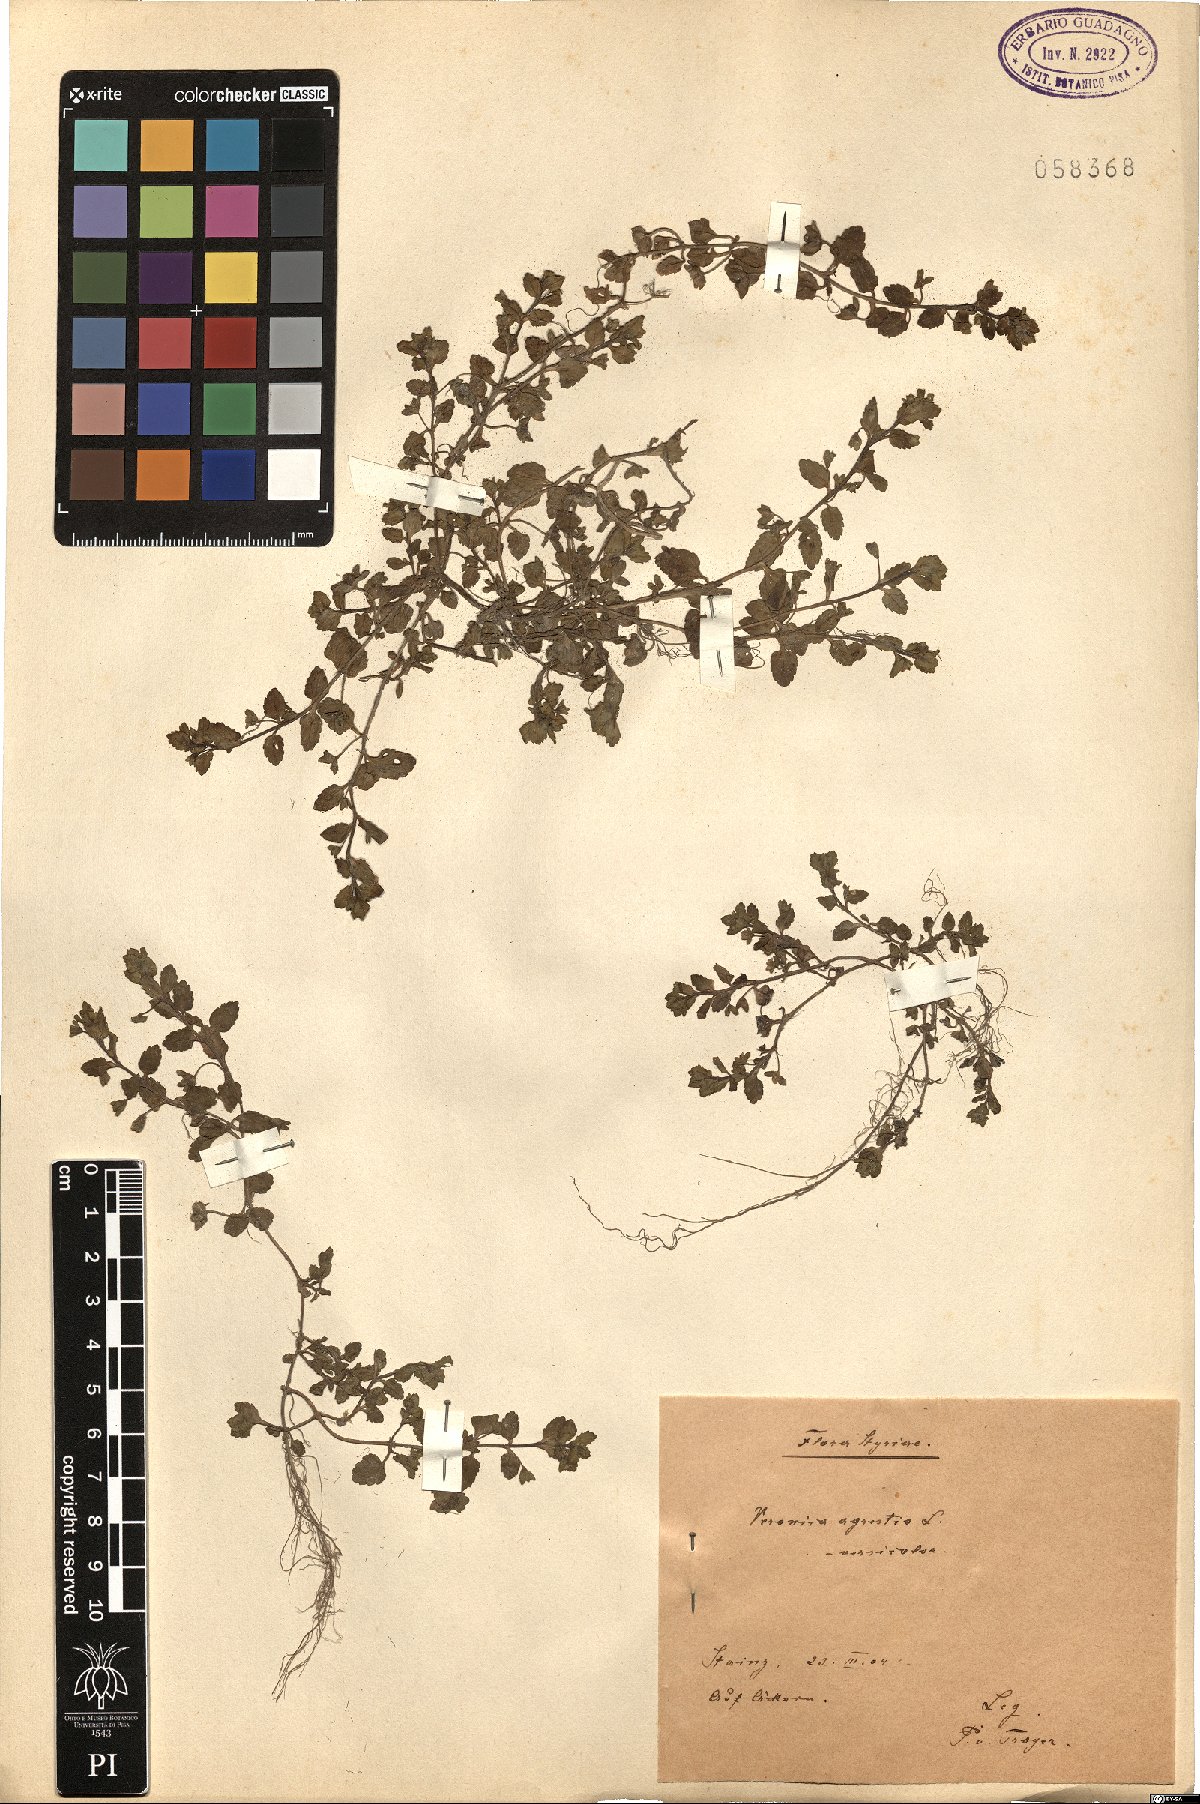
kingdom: Plantae
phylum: Tracheophyta
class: Magnoliopsida
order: Lamiales
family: Plantaginaceae
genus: Veronica
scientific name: Veronica agrestis
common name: Green field-speedwell
